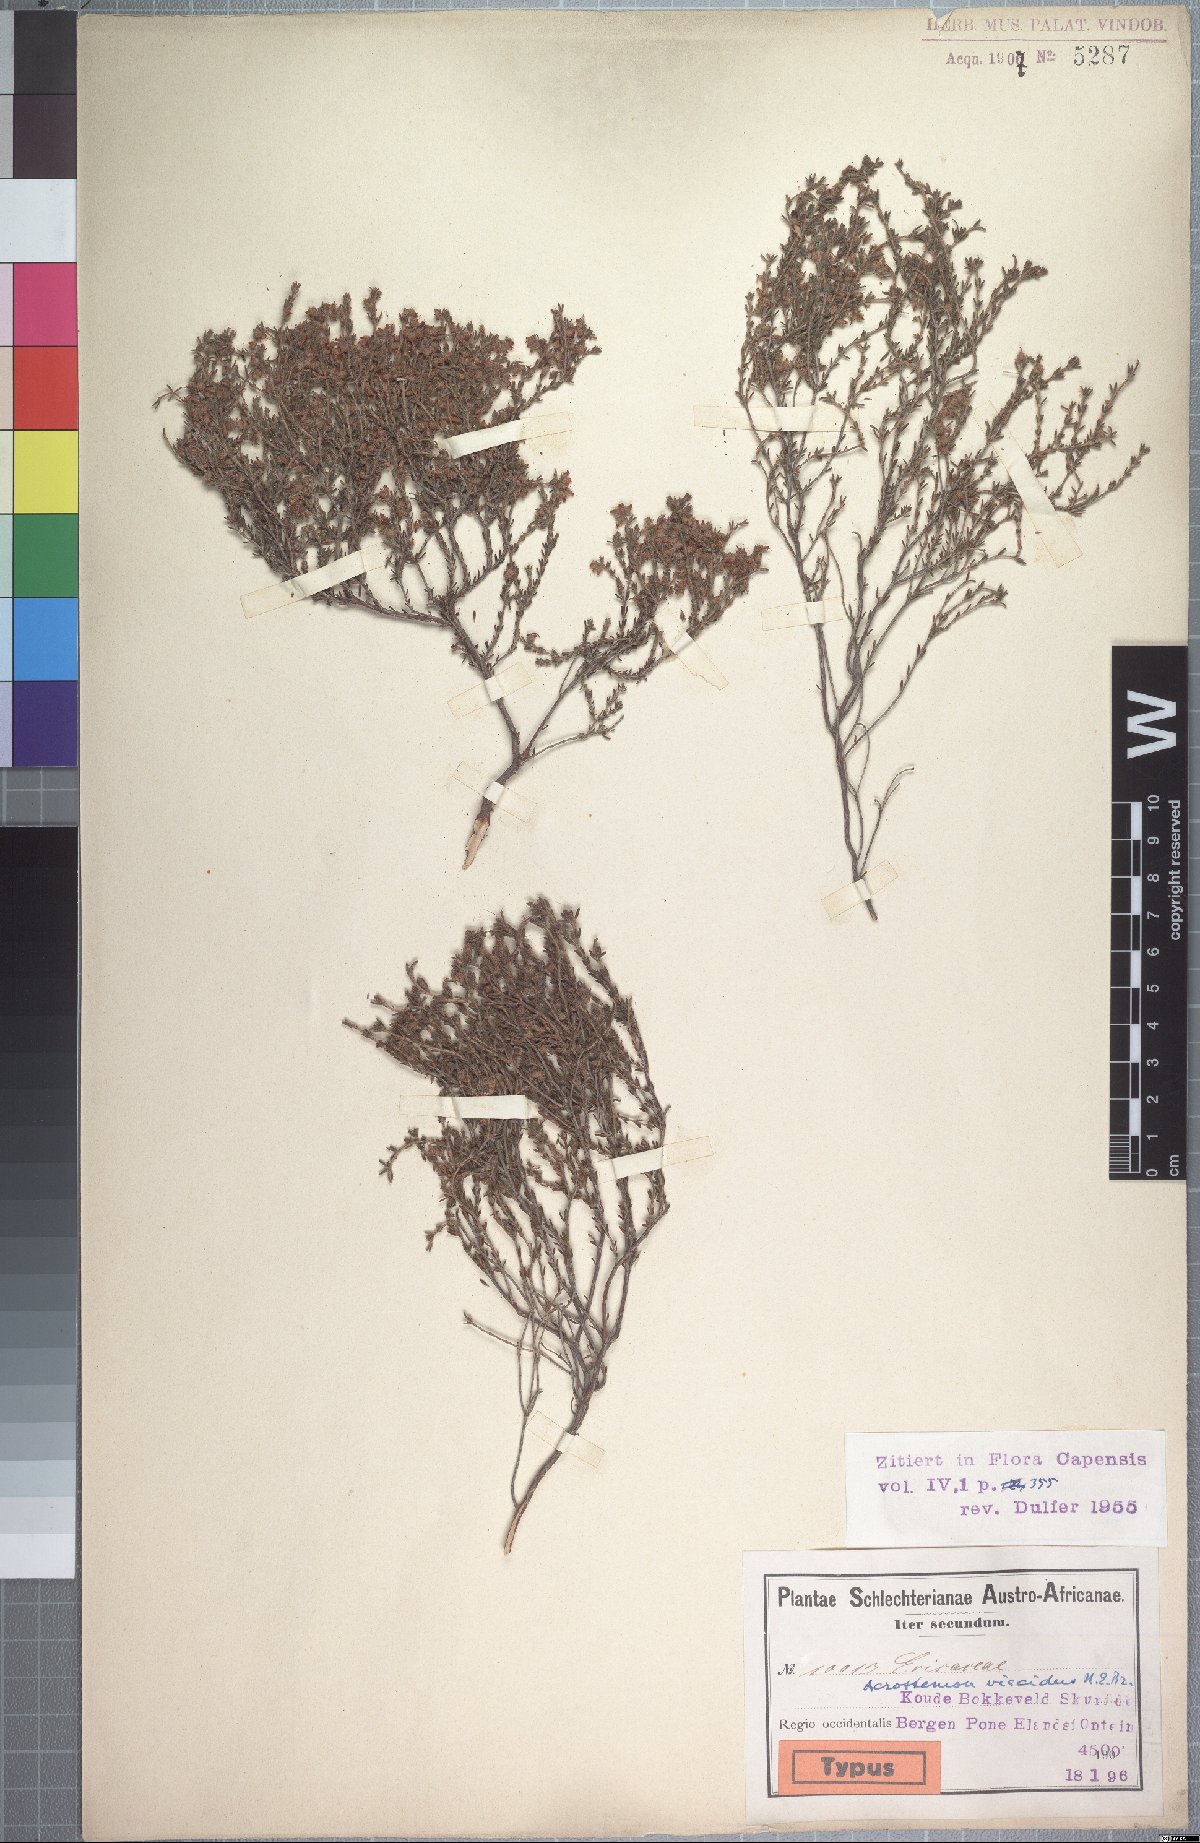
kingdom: Plantae
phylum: Tracheophyta
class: Magnoliopsida
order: Ericales
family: Ericaceae
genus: Erica
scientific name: Erica arachnocalyx
